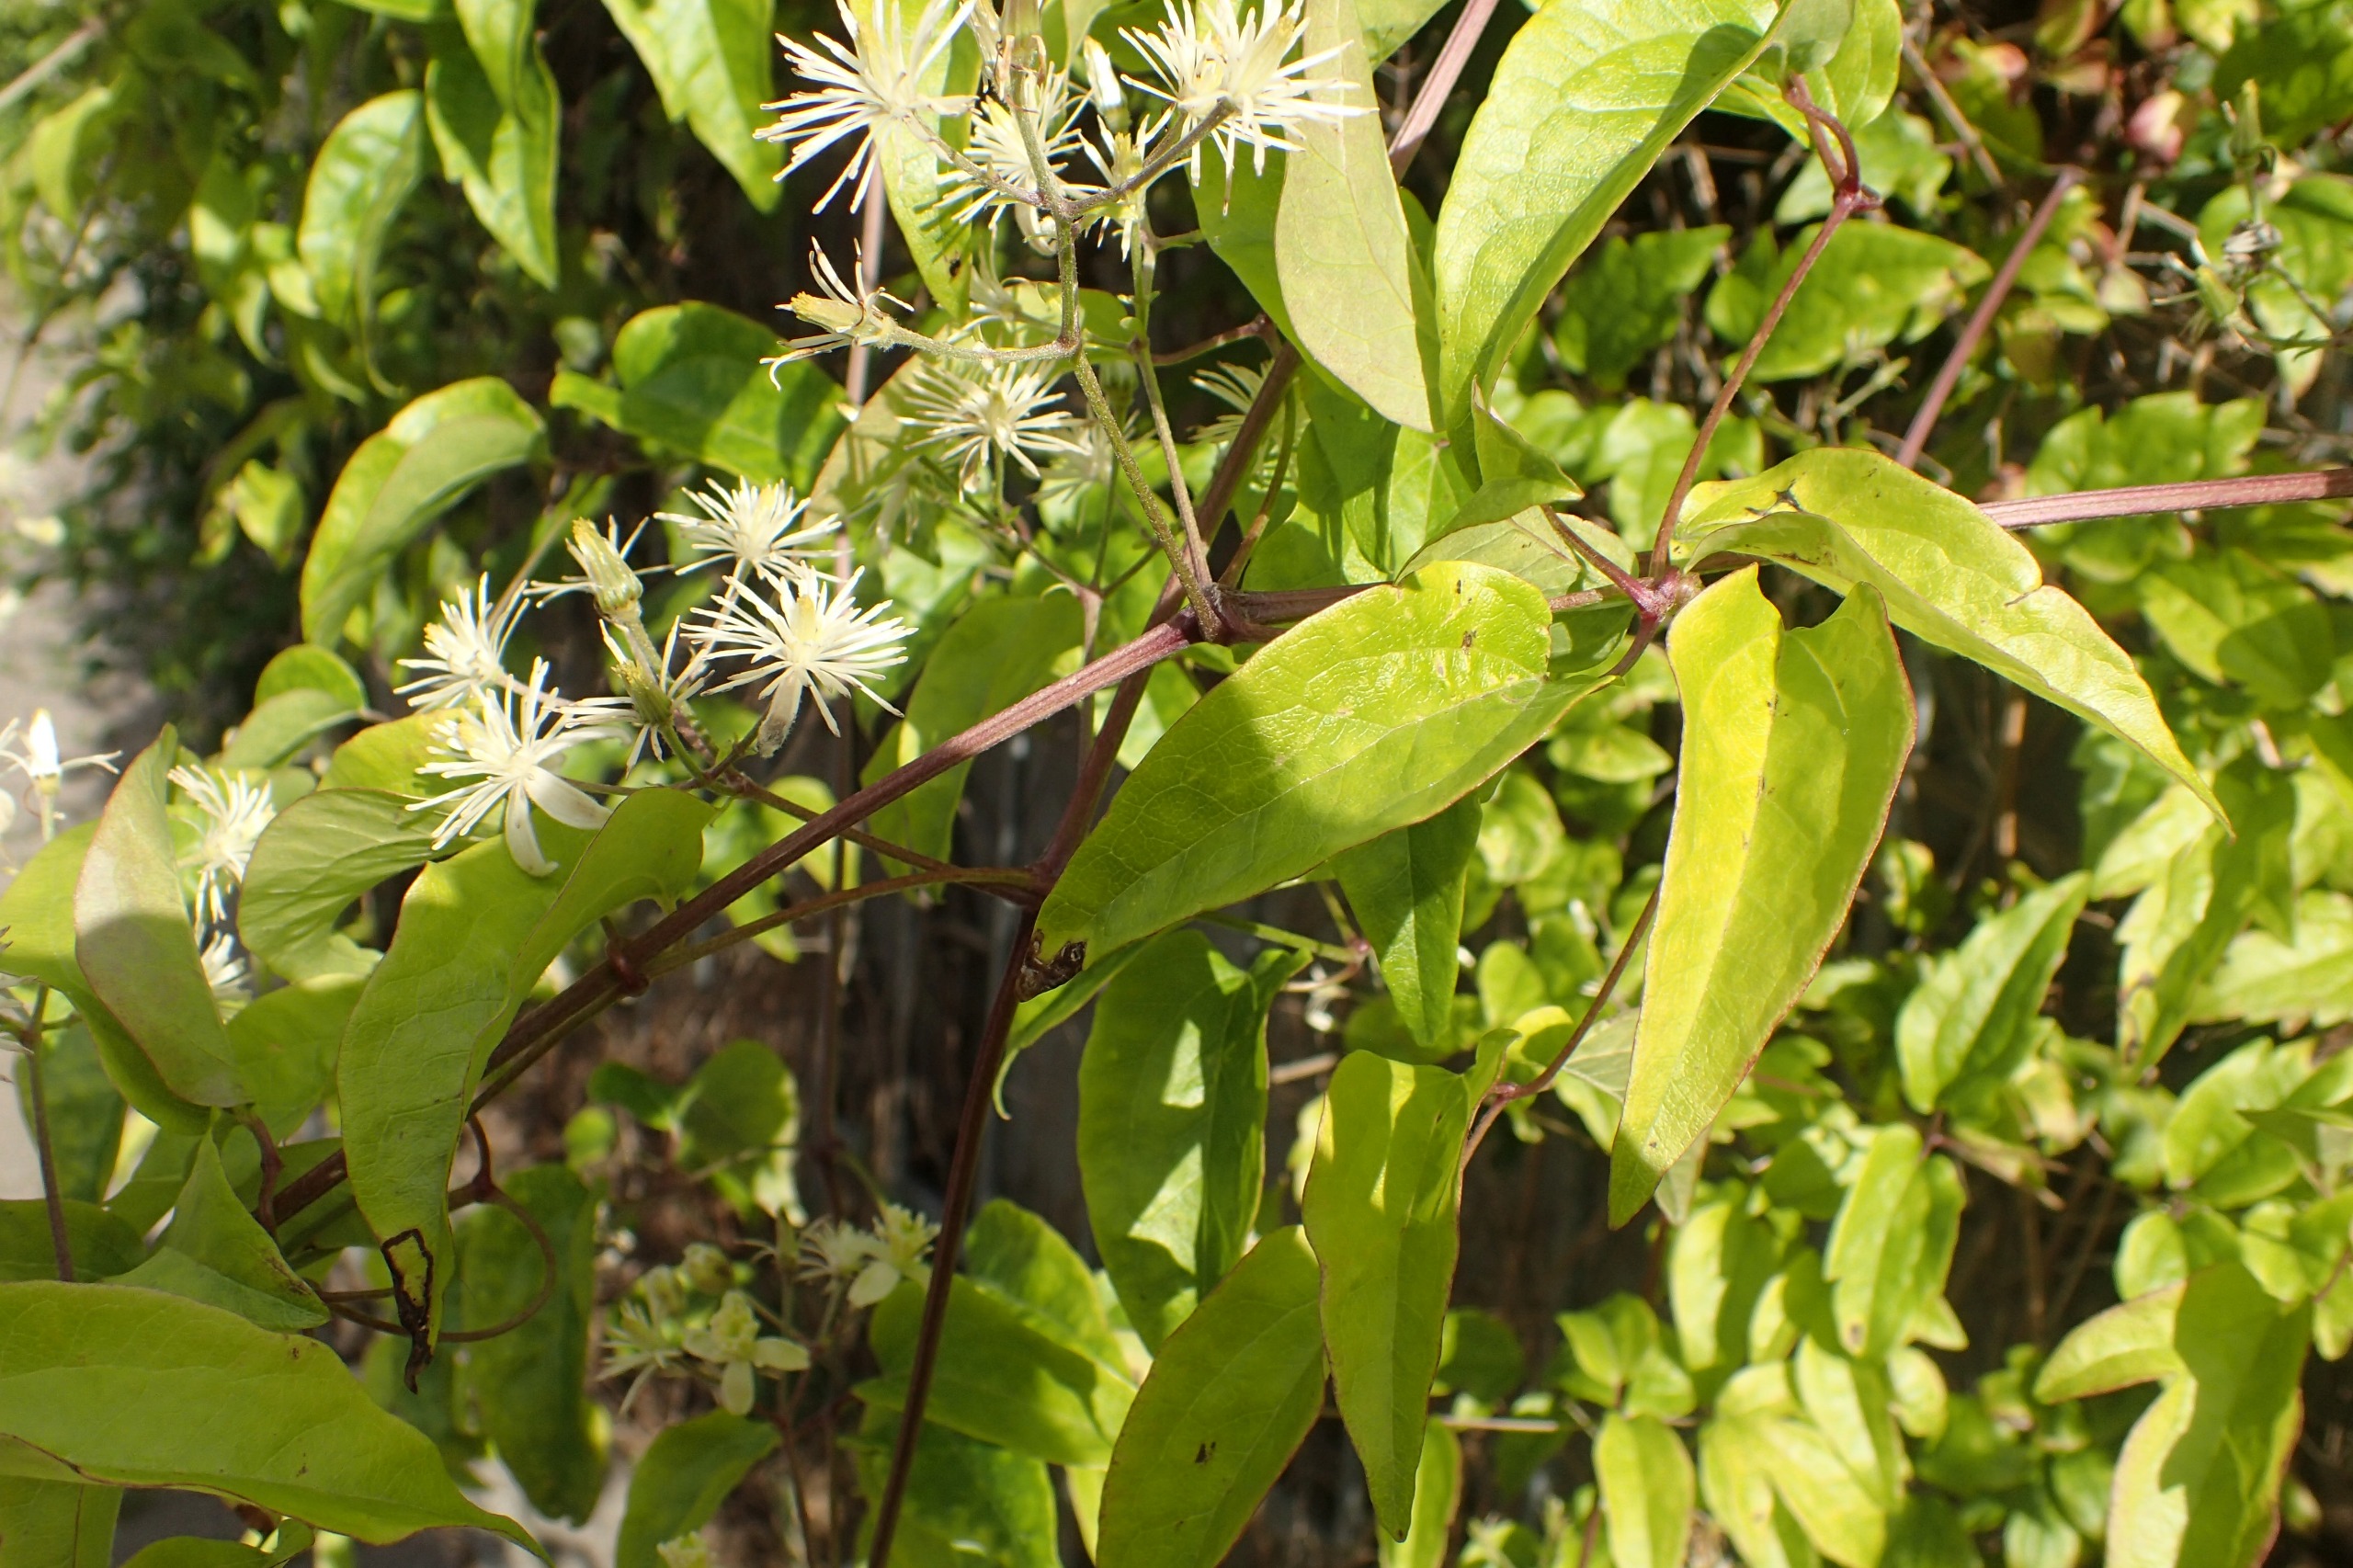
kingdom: Plantae
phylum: Tracheophyta
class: Magnoliopsida
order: Ranunculales
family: Ranunculaceae
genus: Clematis
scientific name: Clematis vitalba
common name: Skovranke
